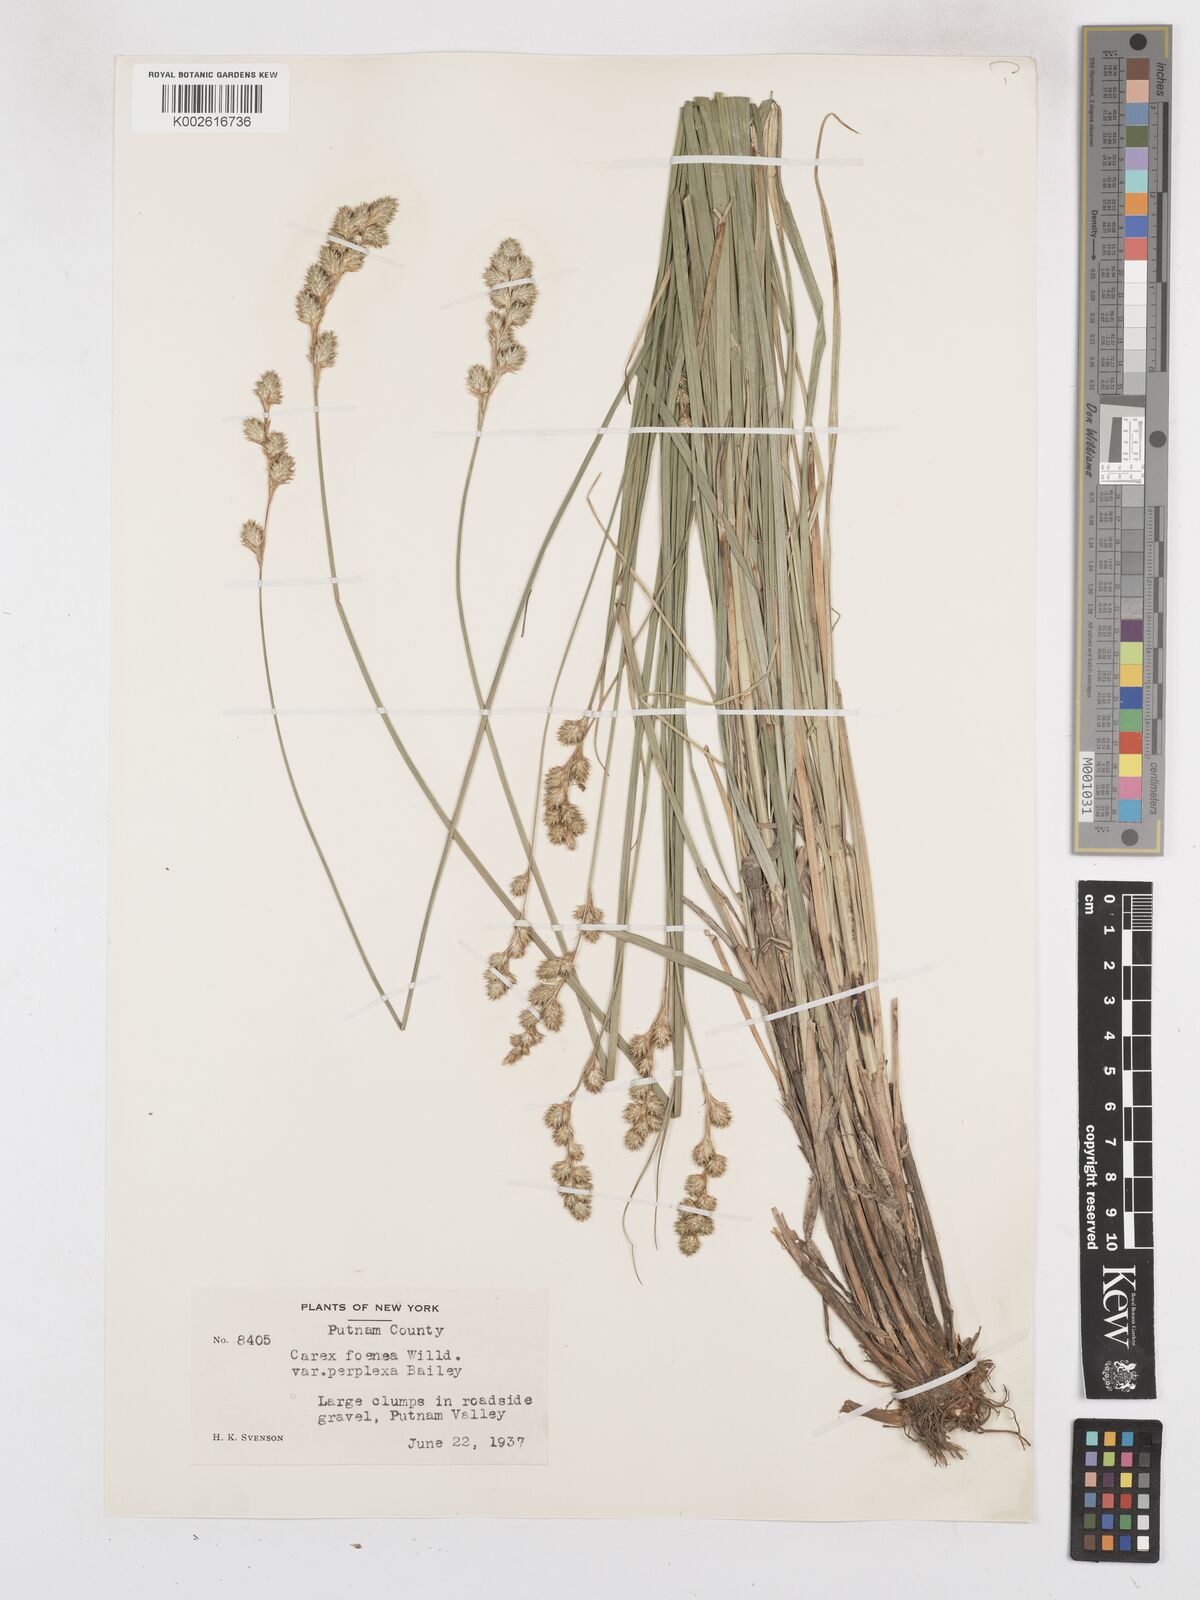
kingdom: Plantae
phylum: Tracheophyta
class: Liliopsida
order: Poales
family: Cyperaceae
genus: Carex
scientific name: Carex argyrantha
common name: Silvery-flowered sedge
